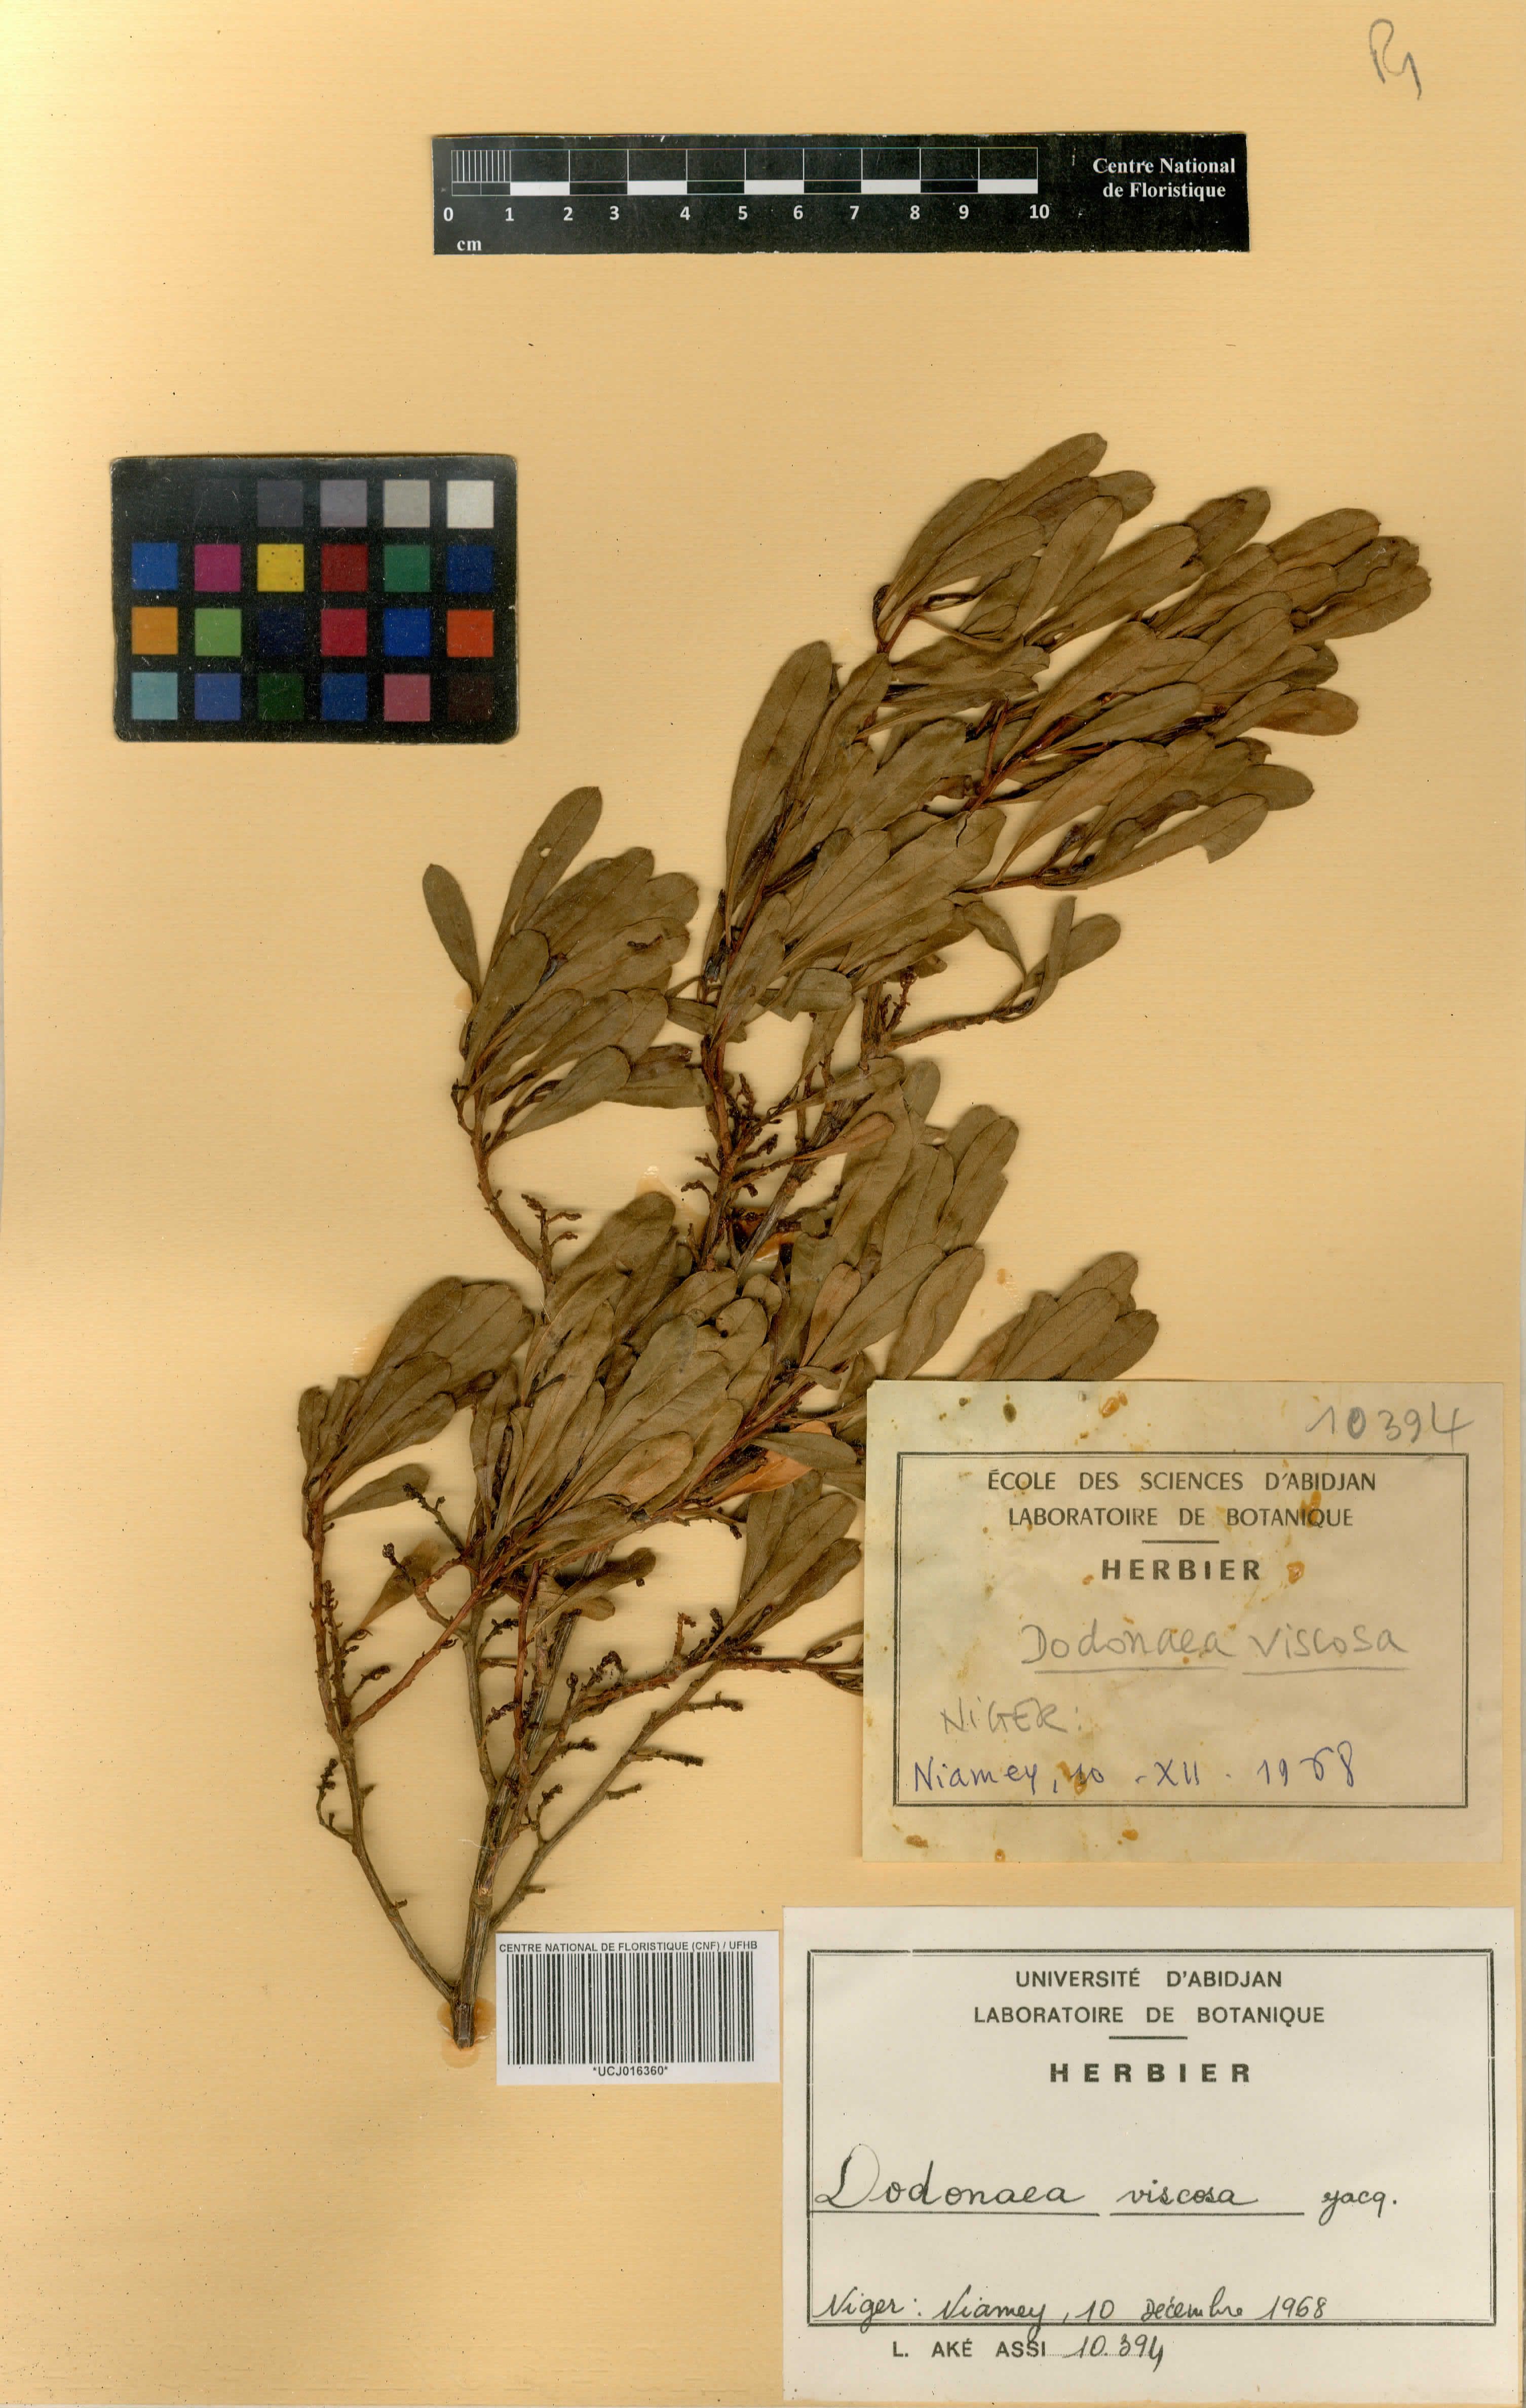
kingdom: Plantae
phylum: Tracheophyta
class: Magnoliopsida
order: Sapindales
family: Sapindaceae
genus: Dodonaea
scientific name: Dodonaea viscosa
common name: Hopbush
